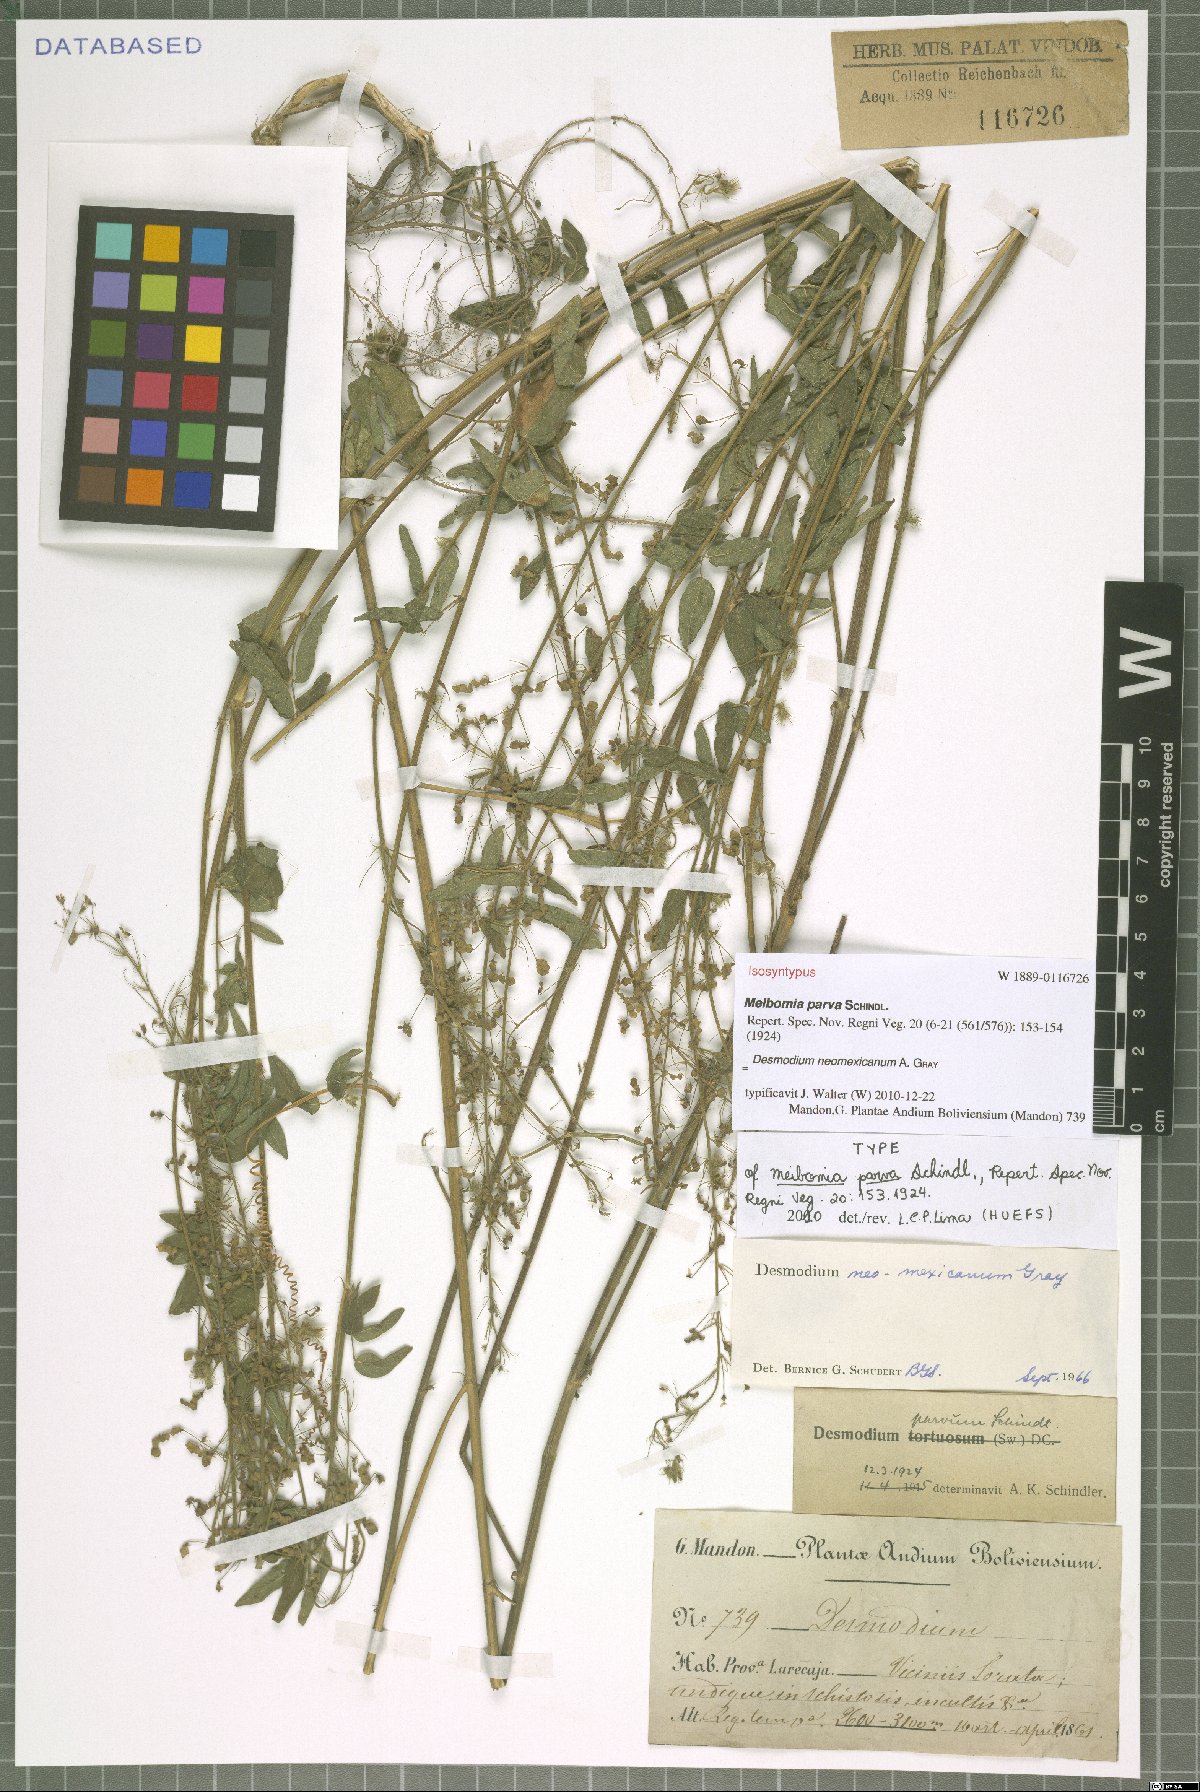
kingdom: Plantae
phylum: Tracheophyta
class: Magnoliopsida
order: Fabales
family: Fabaceae
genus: Desmodium
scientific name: Desmodium procumbens
